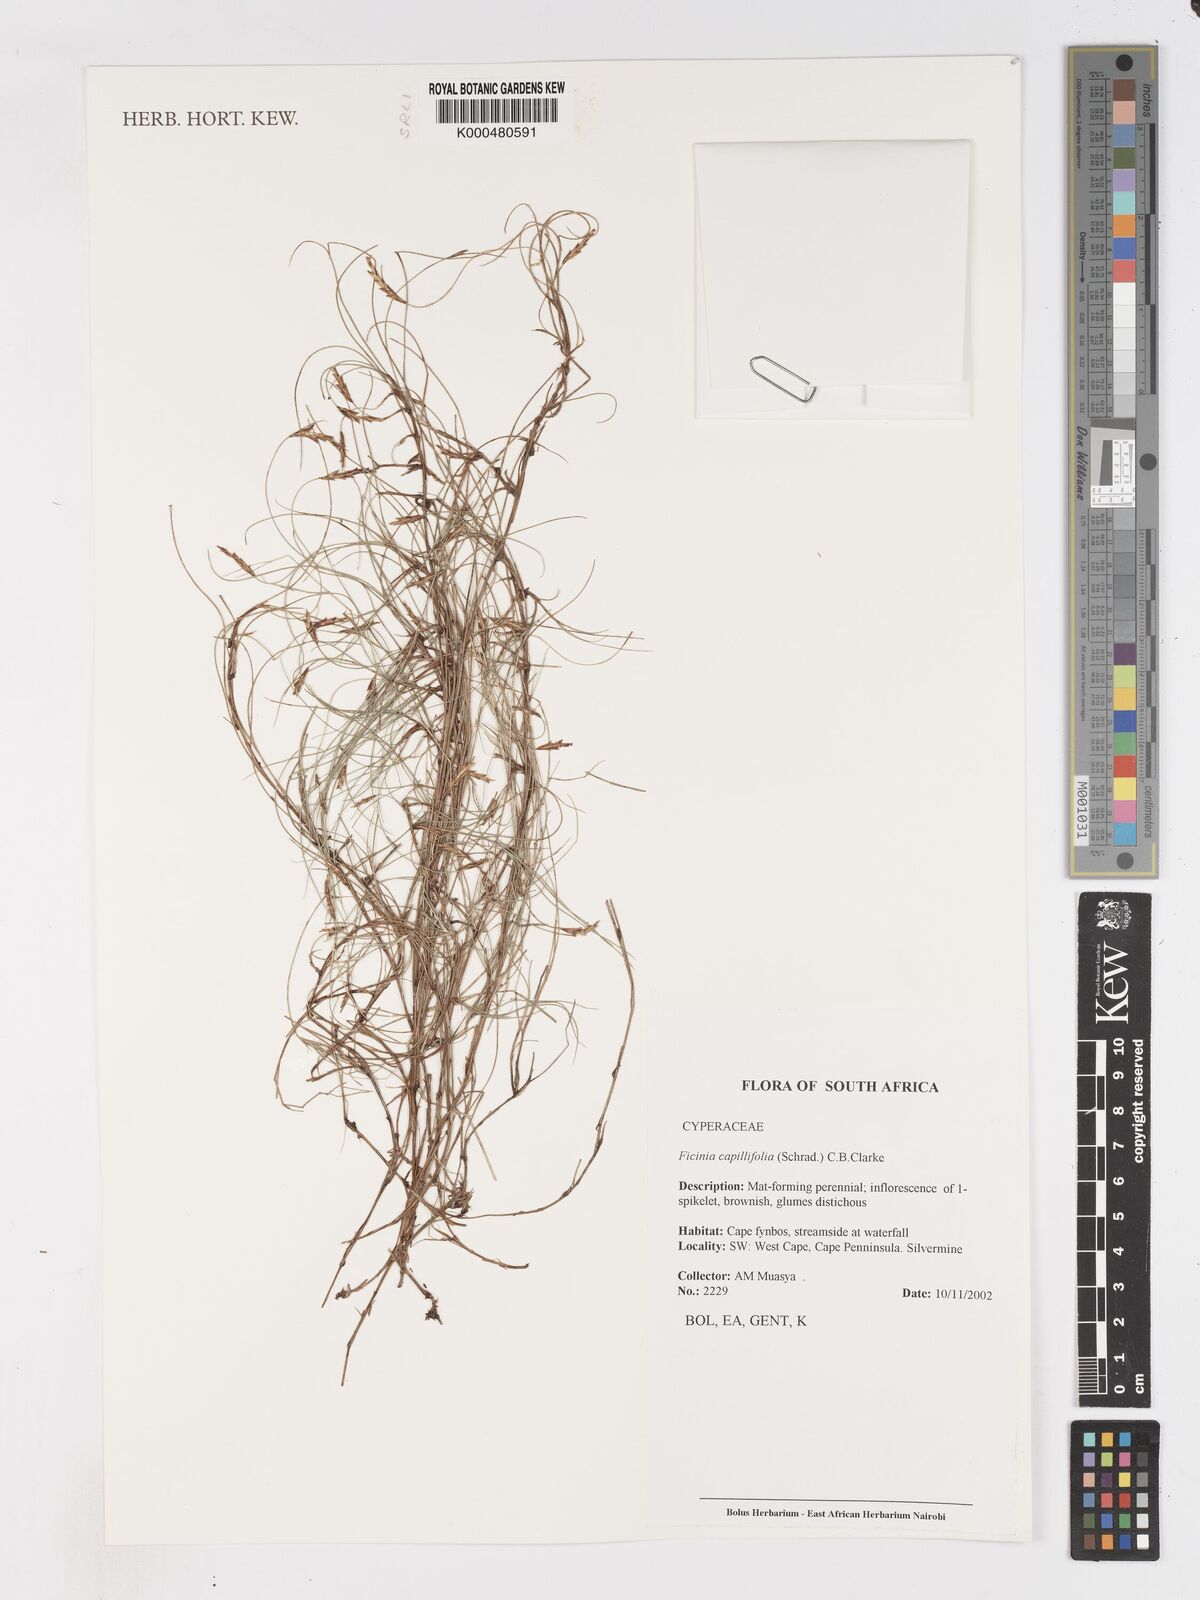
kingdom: Plantae
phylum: Tracheophyta
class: Liliopsida
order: Poales
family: Cyperaceae
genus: Ficinia
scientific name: Ficinia capillifolia
